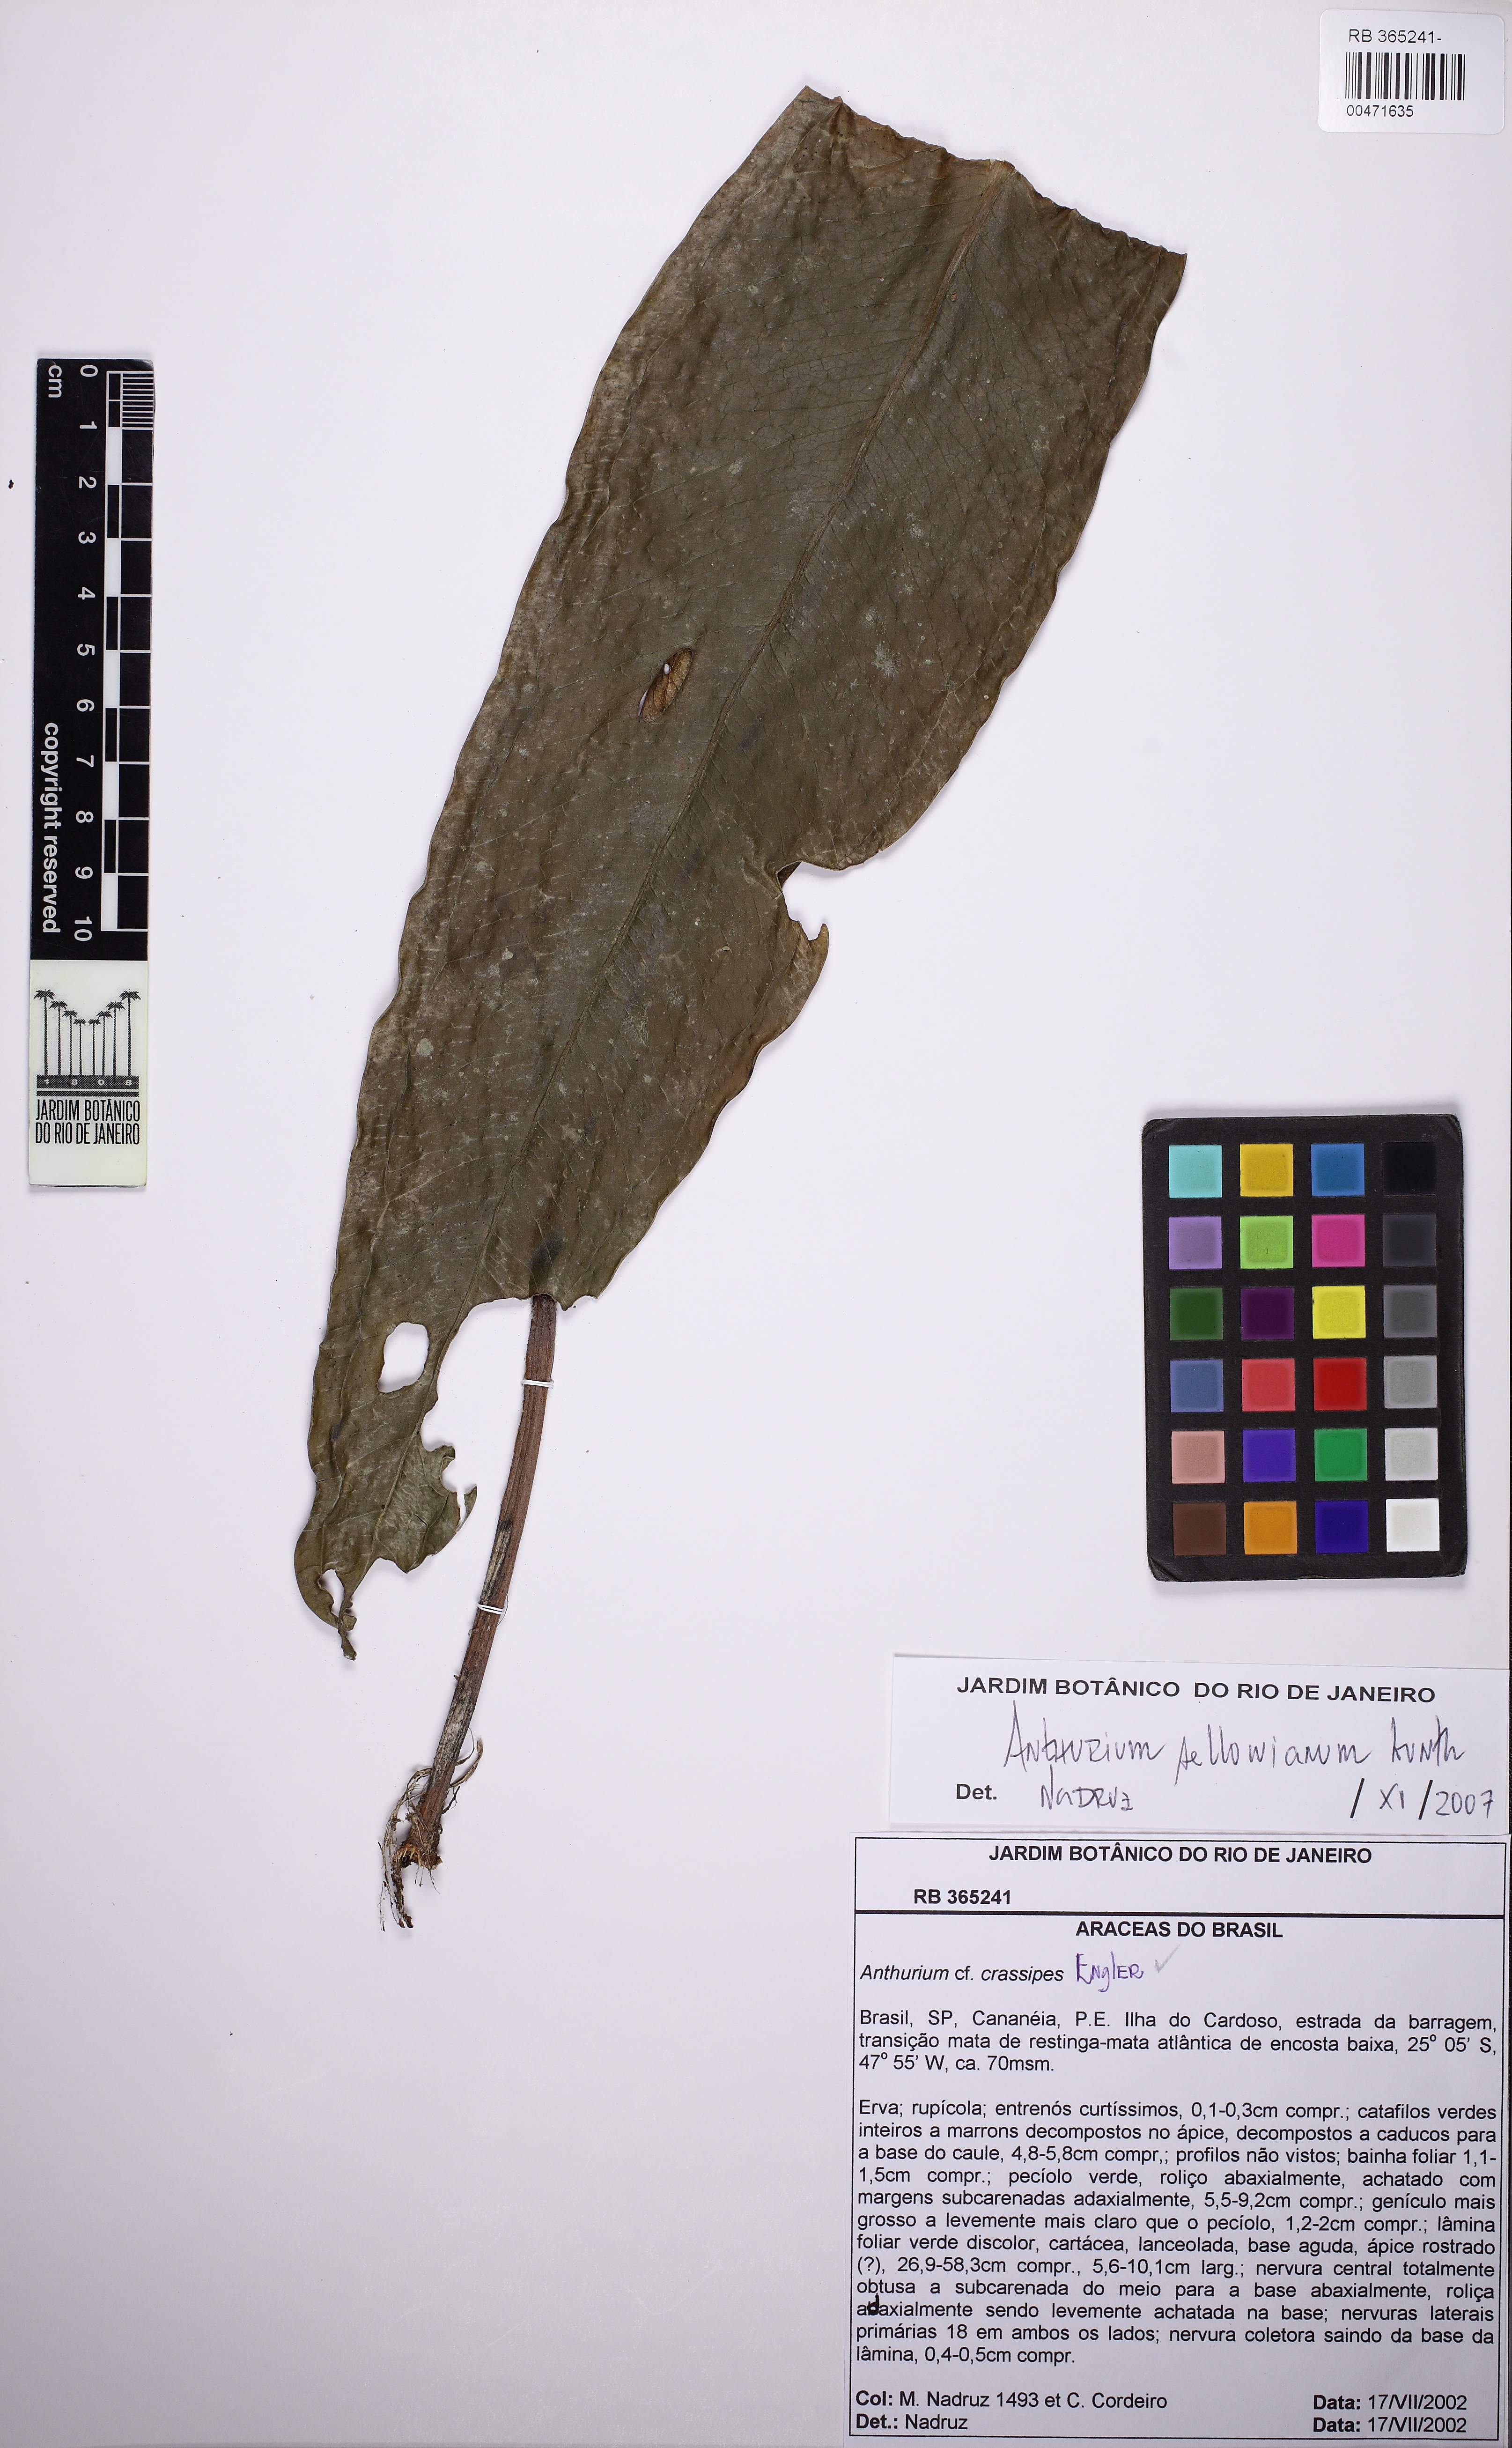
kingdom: Plantae
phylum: Tracheophyta
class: Liliopsida
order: Alismatales
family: Araceae
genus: Anthurium
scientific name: Anthurium sellowianum
